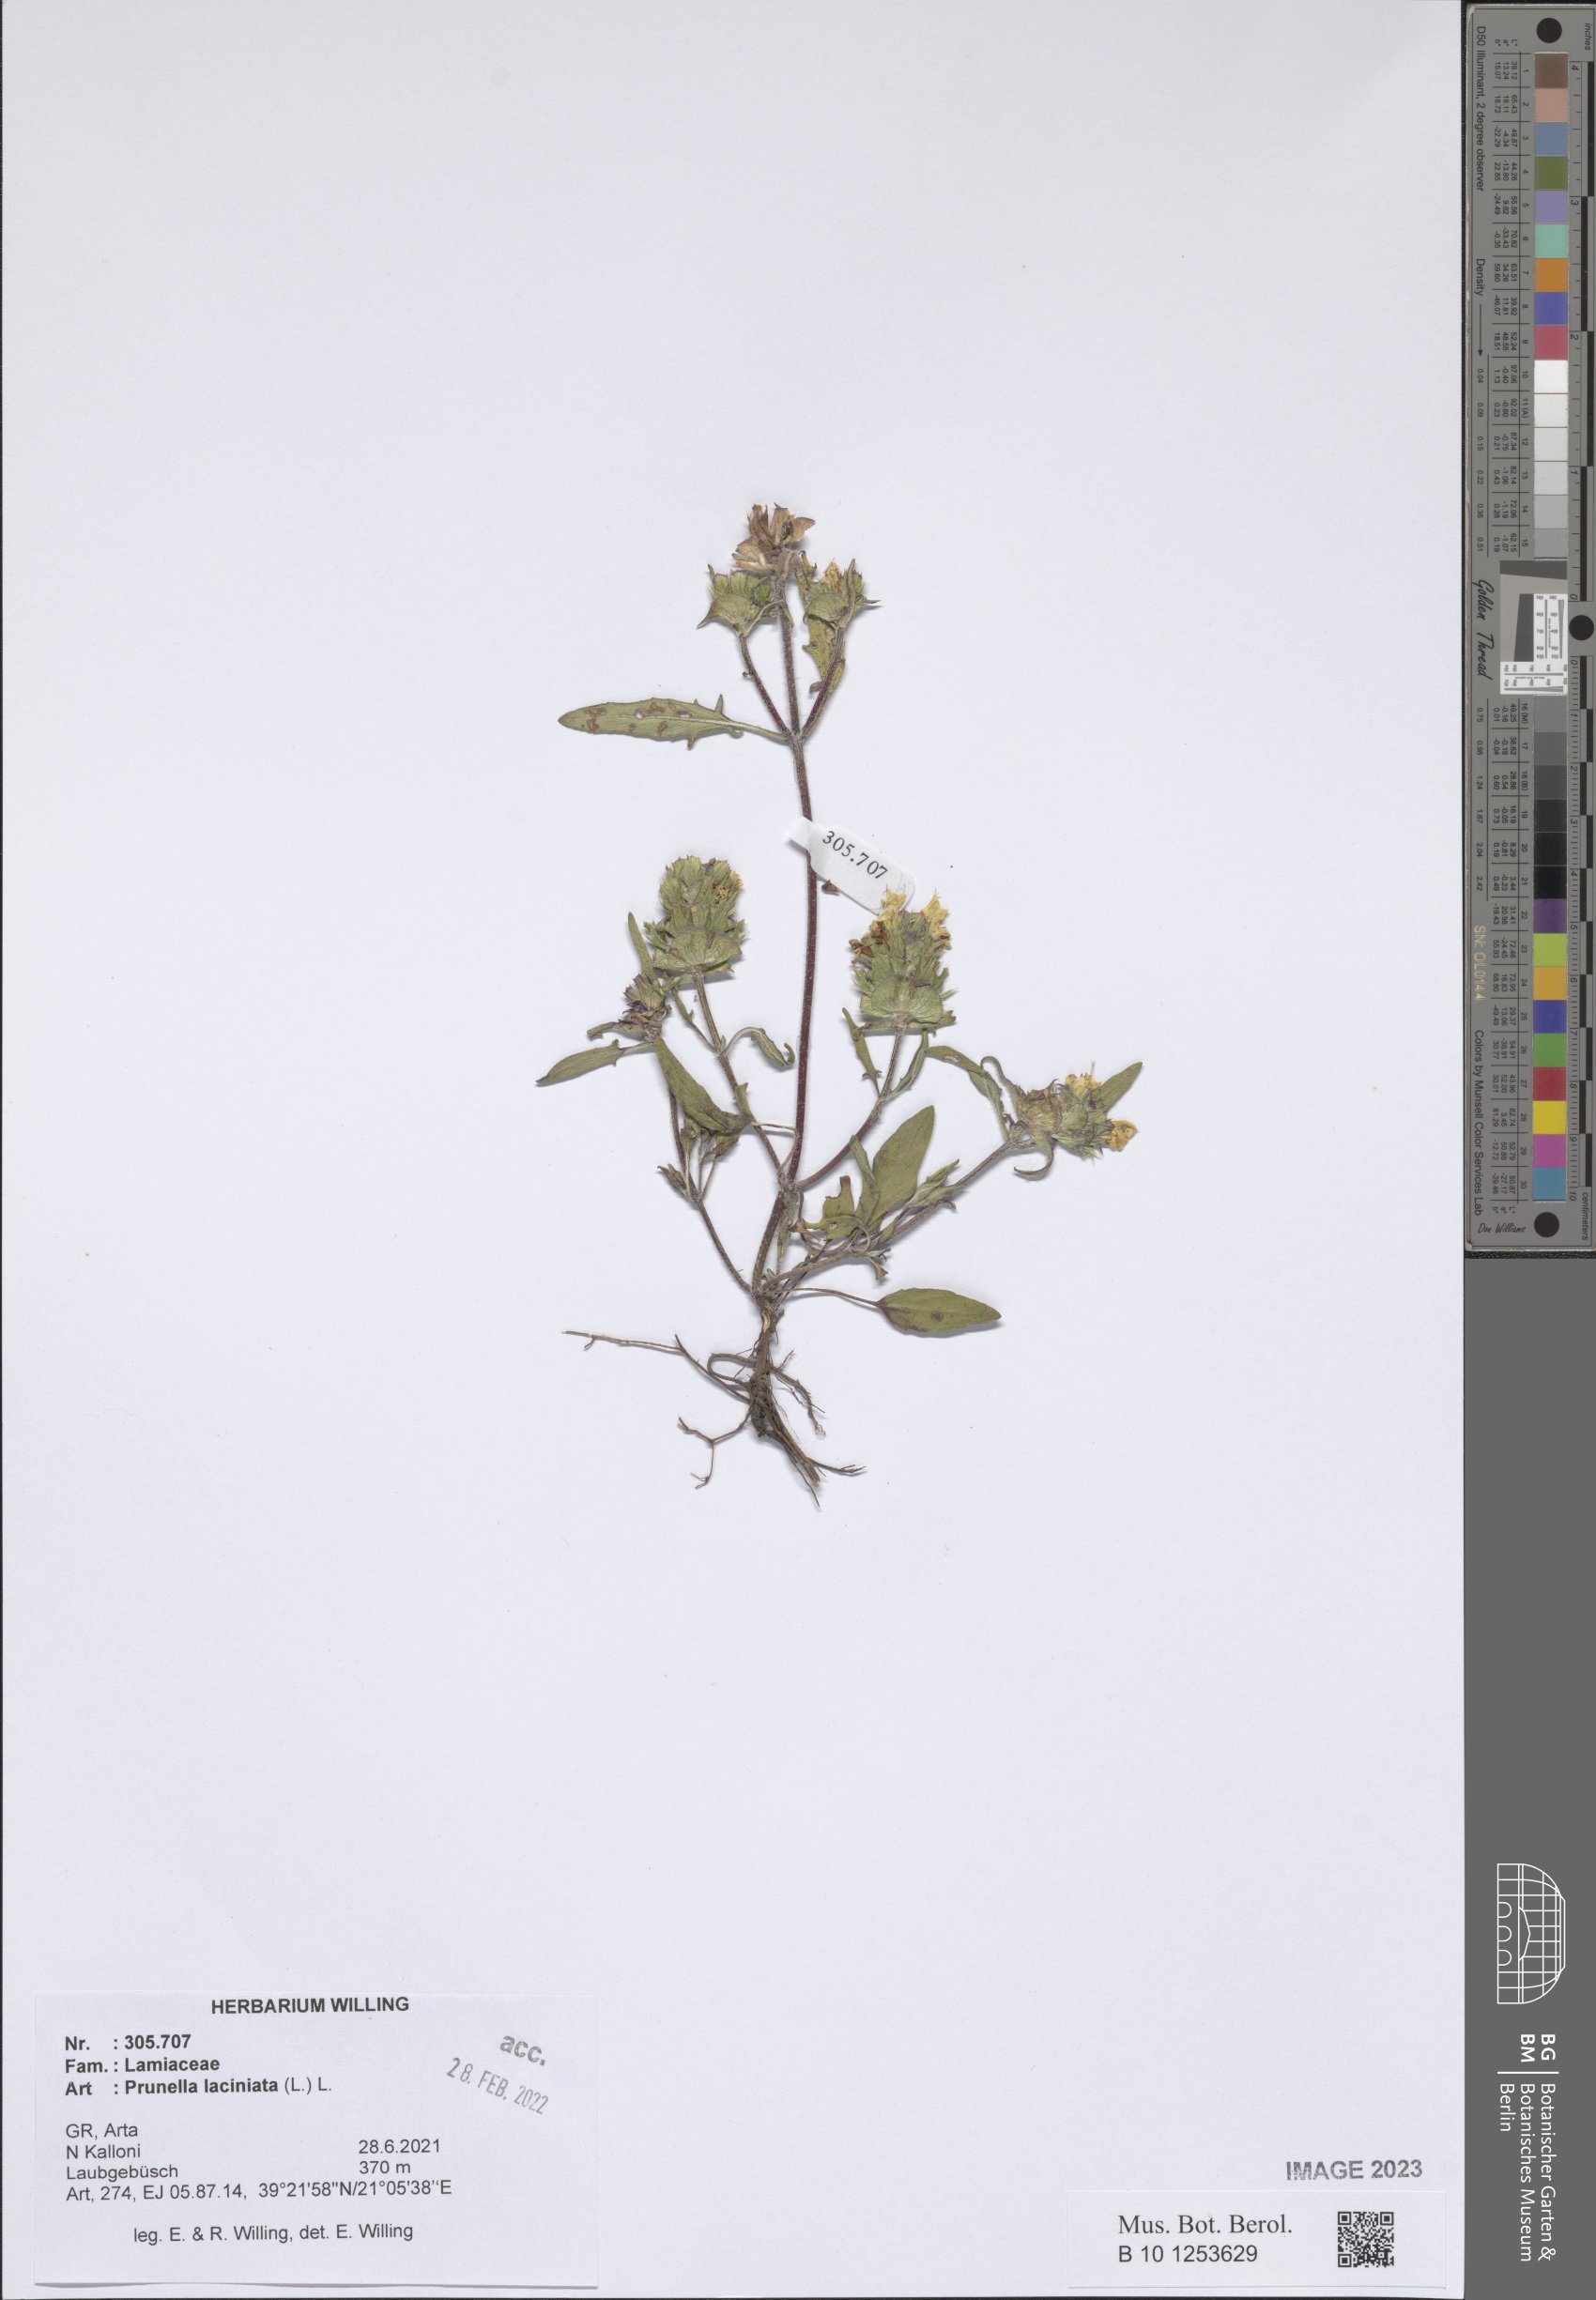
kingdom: Plantae
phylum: Tracheophyta
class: Magnoliopsida
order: Lamiales
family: Lamiaceae
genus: Prunella
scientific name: Prunella laciniata
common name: Cut-leaved selfheal
